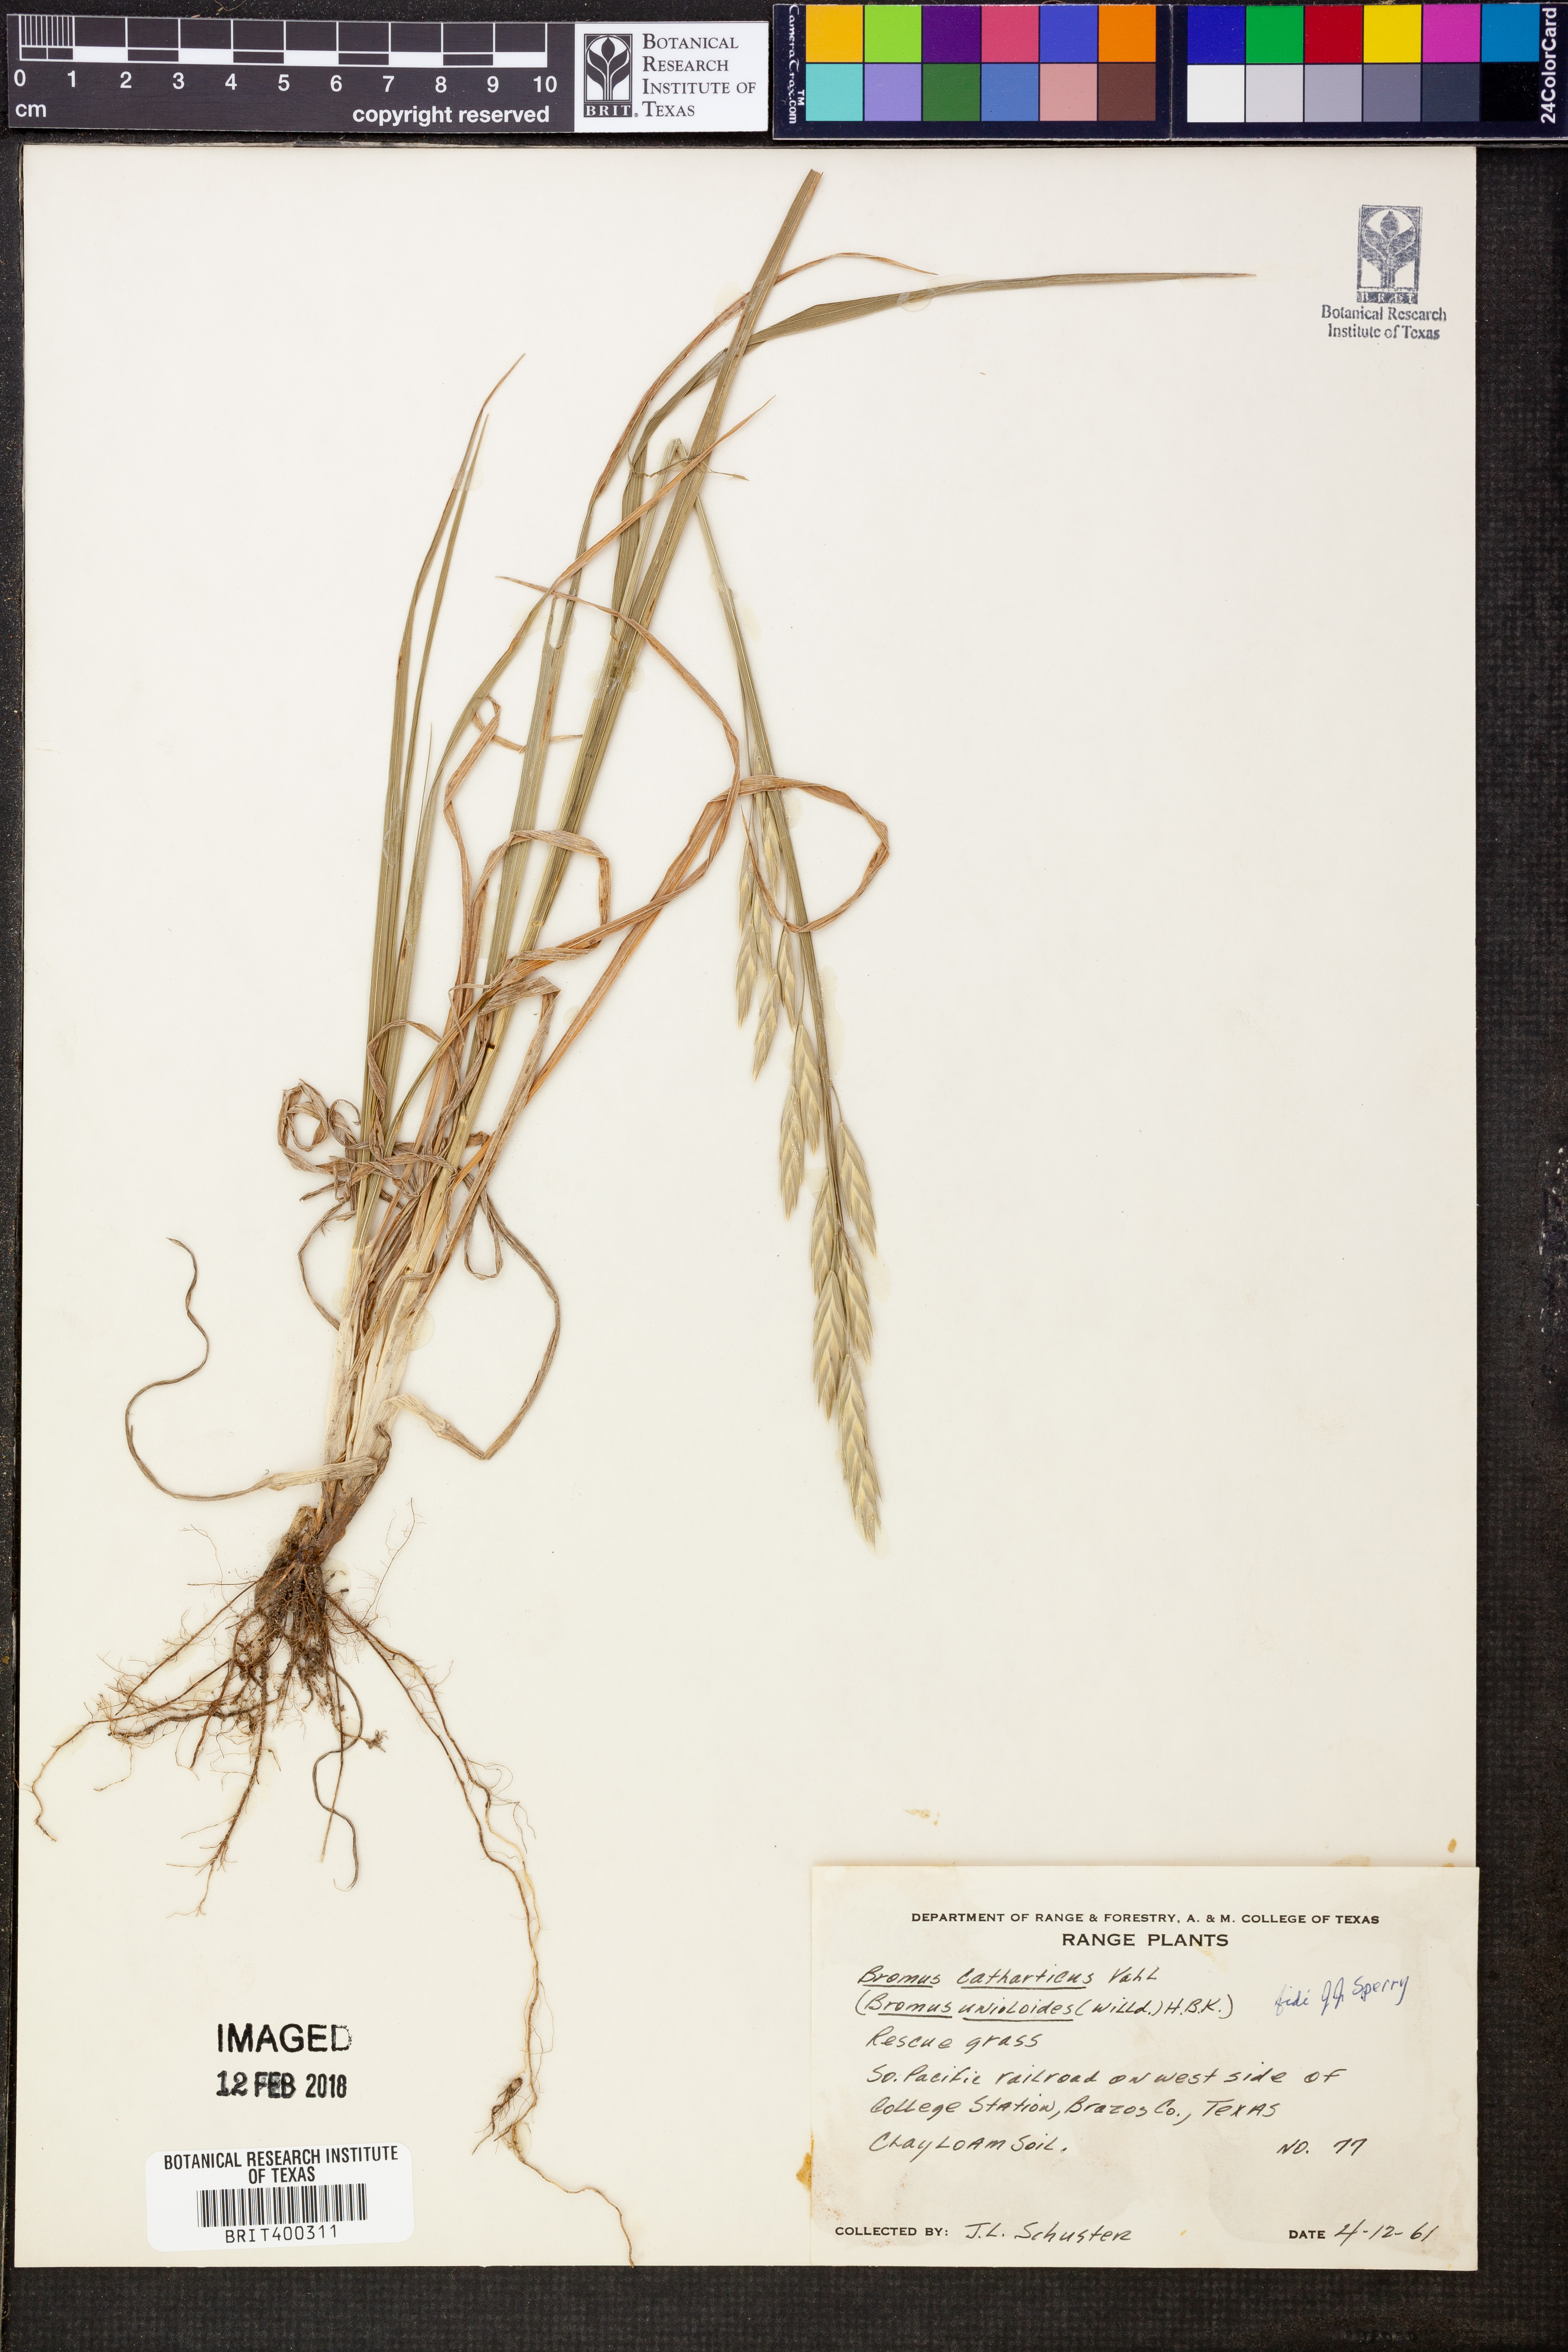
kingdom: Plantae
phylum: Tracheophyta
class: Liliopsida
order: Poales
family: Poaceae
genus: Bromus
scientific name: Bromus catharticus
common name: Rescuegrass
